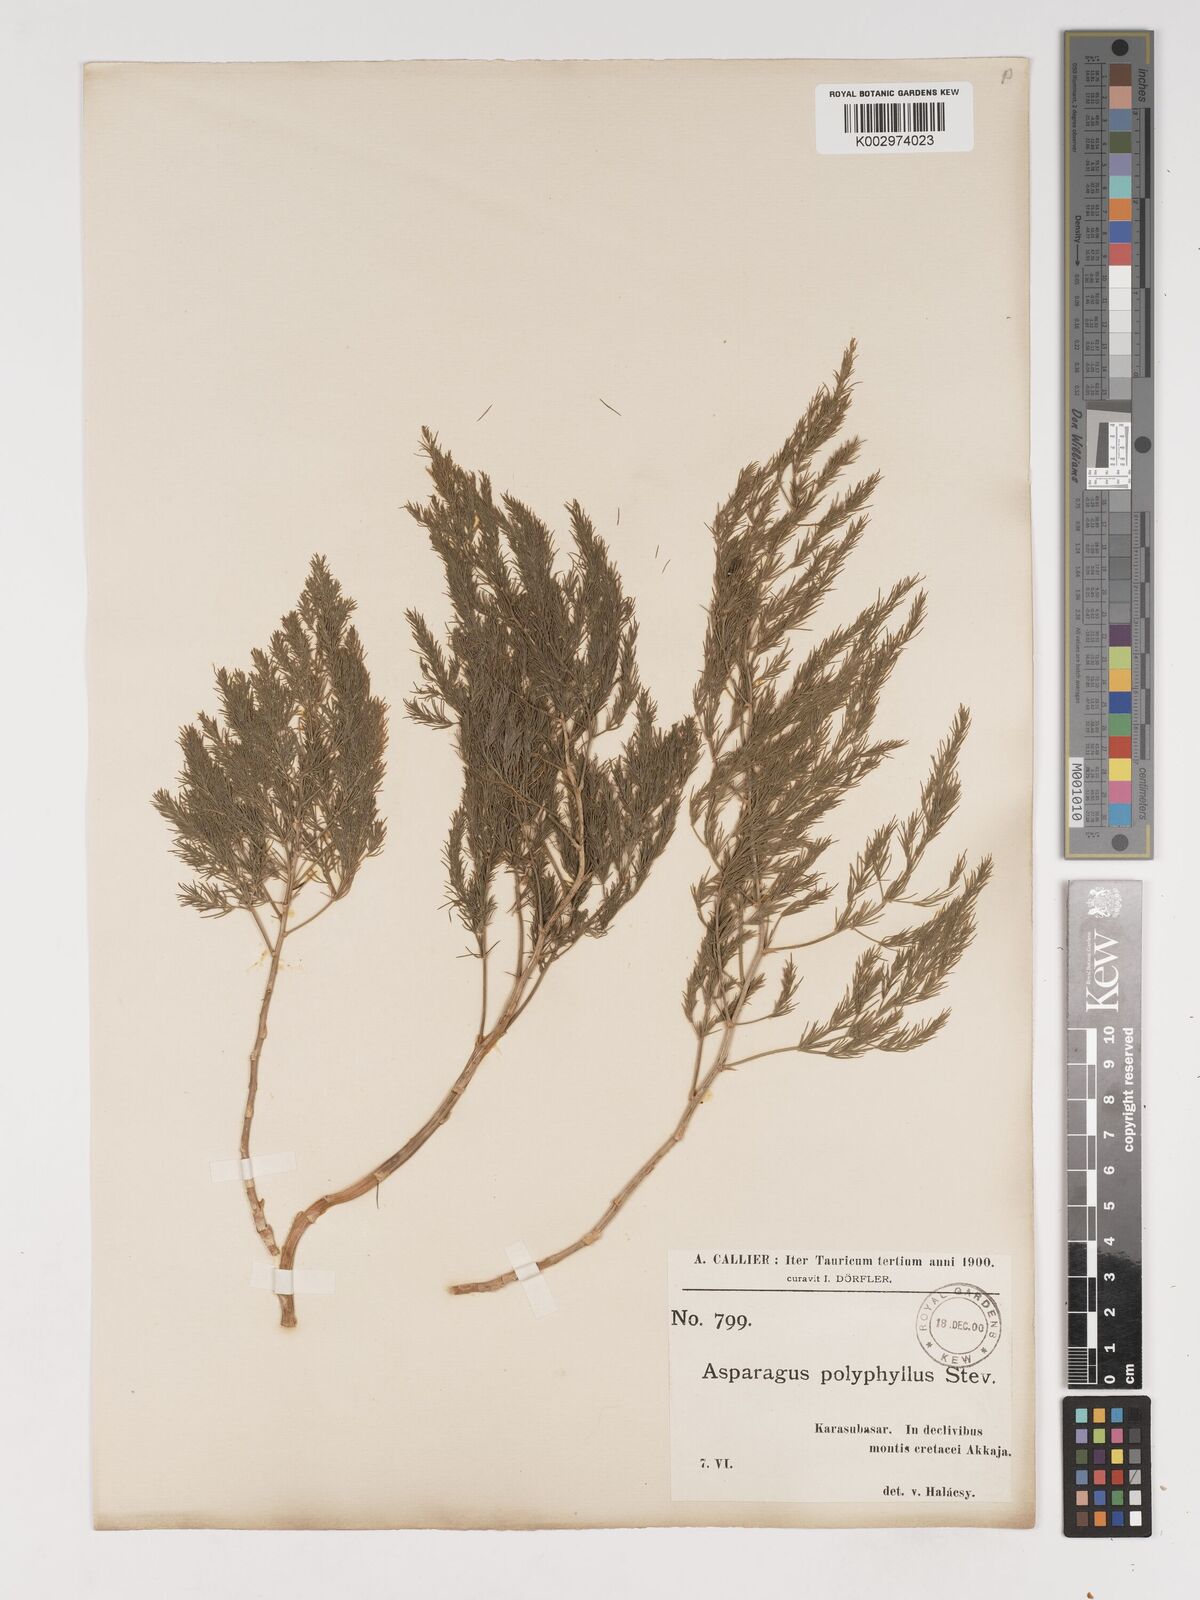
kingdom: Plantae
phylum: Tracheophyta
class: Liliopsida
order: Asparagales
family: Asparagaceae
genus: Asparagus
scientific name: Asparagus
